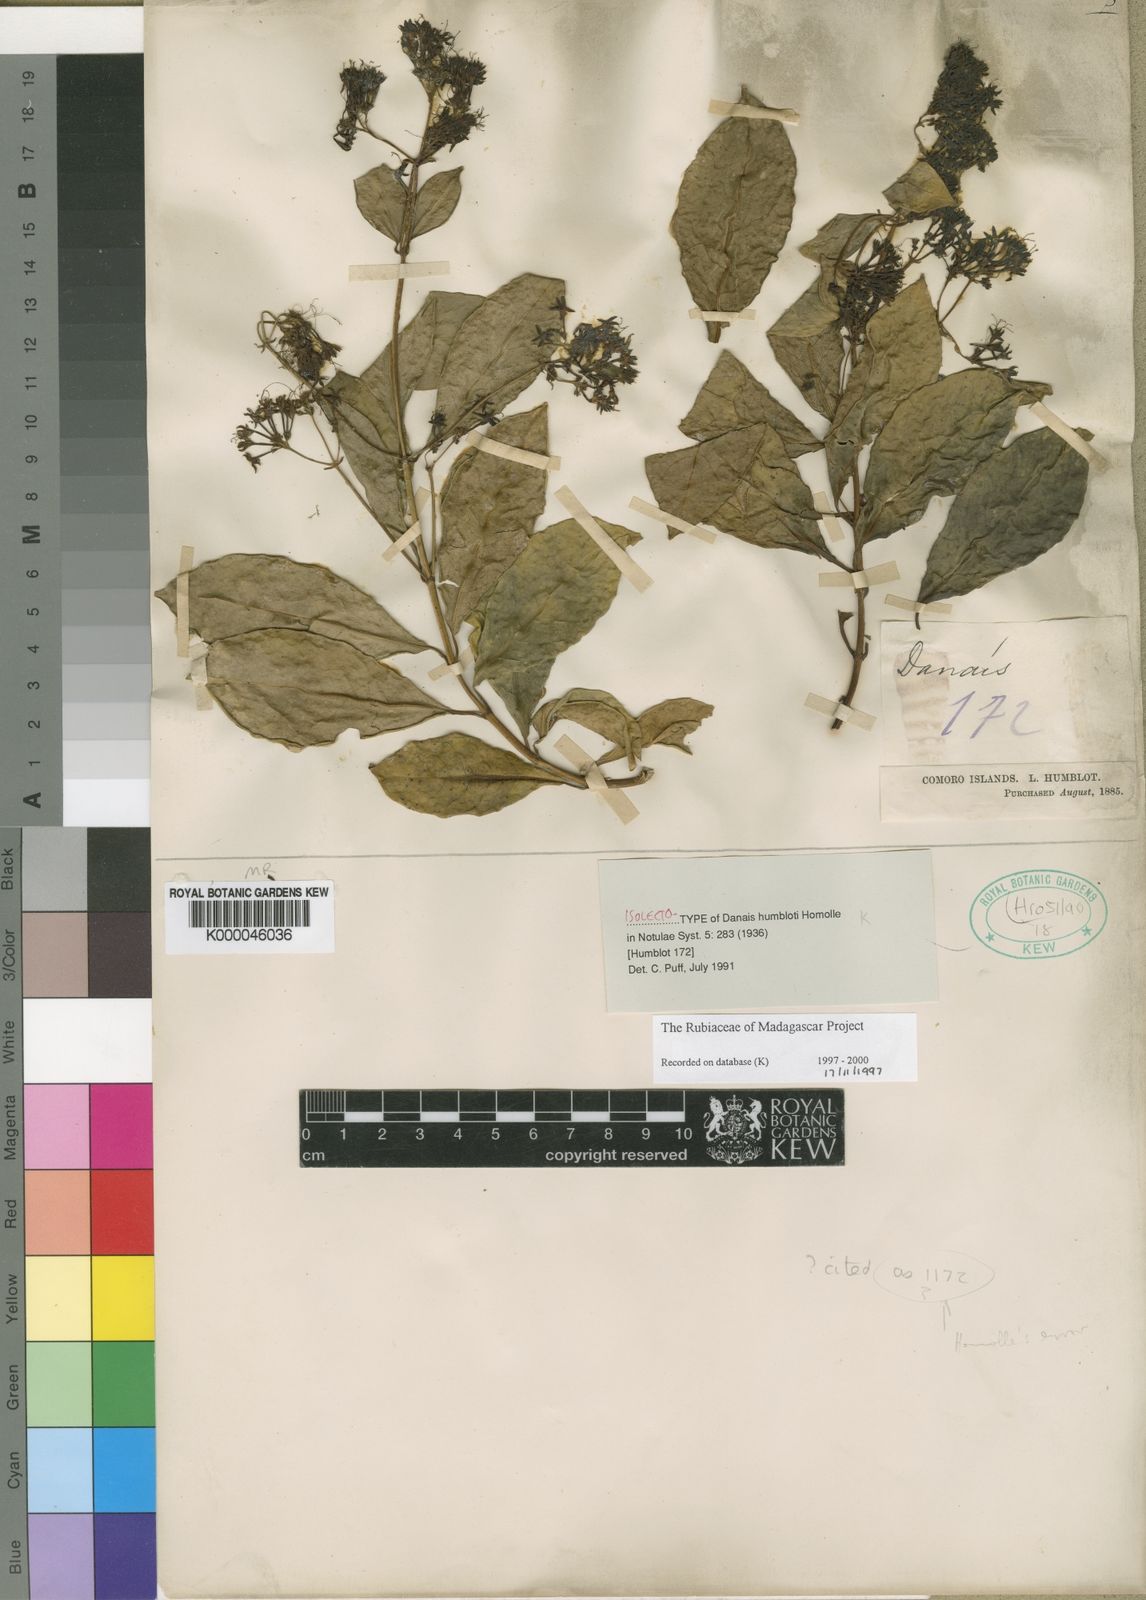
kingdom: Plantae
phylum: Tracheophyta
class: Magnoliopsida
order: Gentianales
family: Rubiaceae
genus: Danais
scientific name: Danais humblotii
